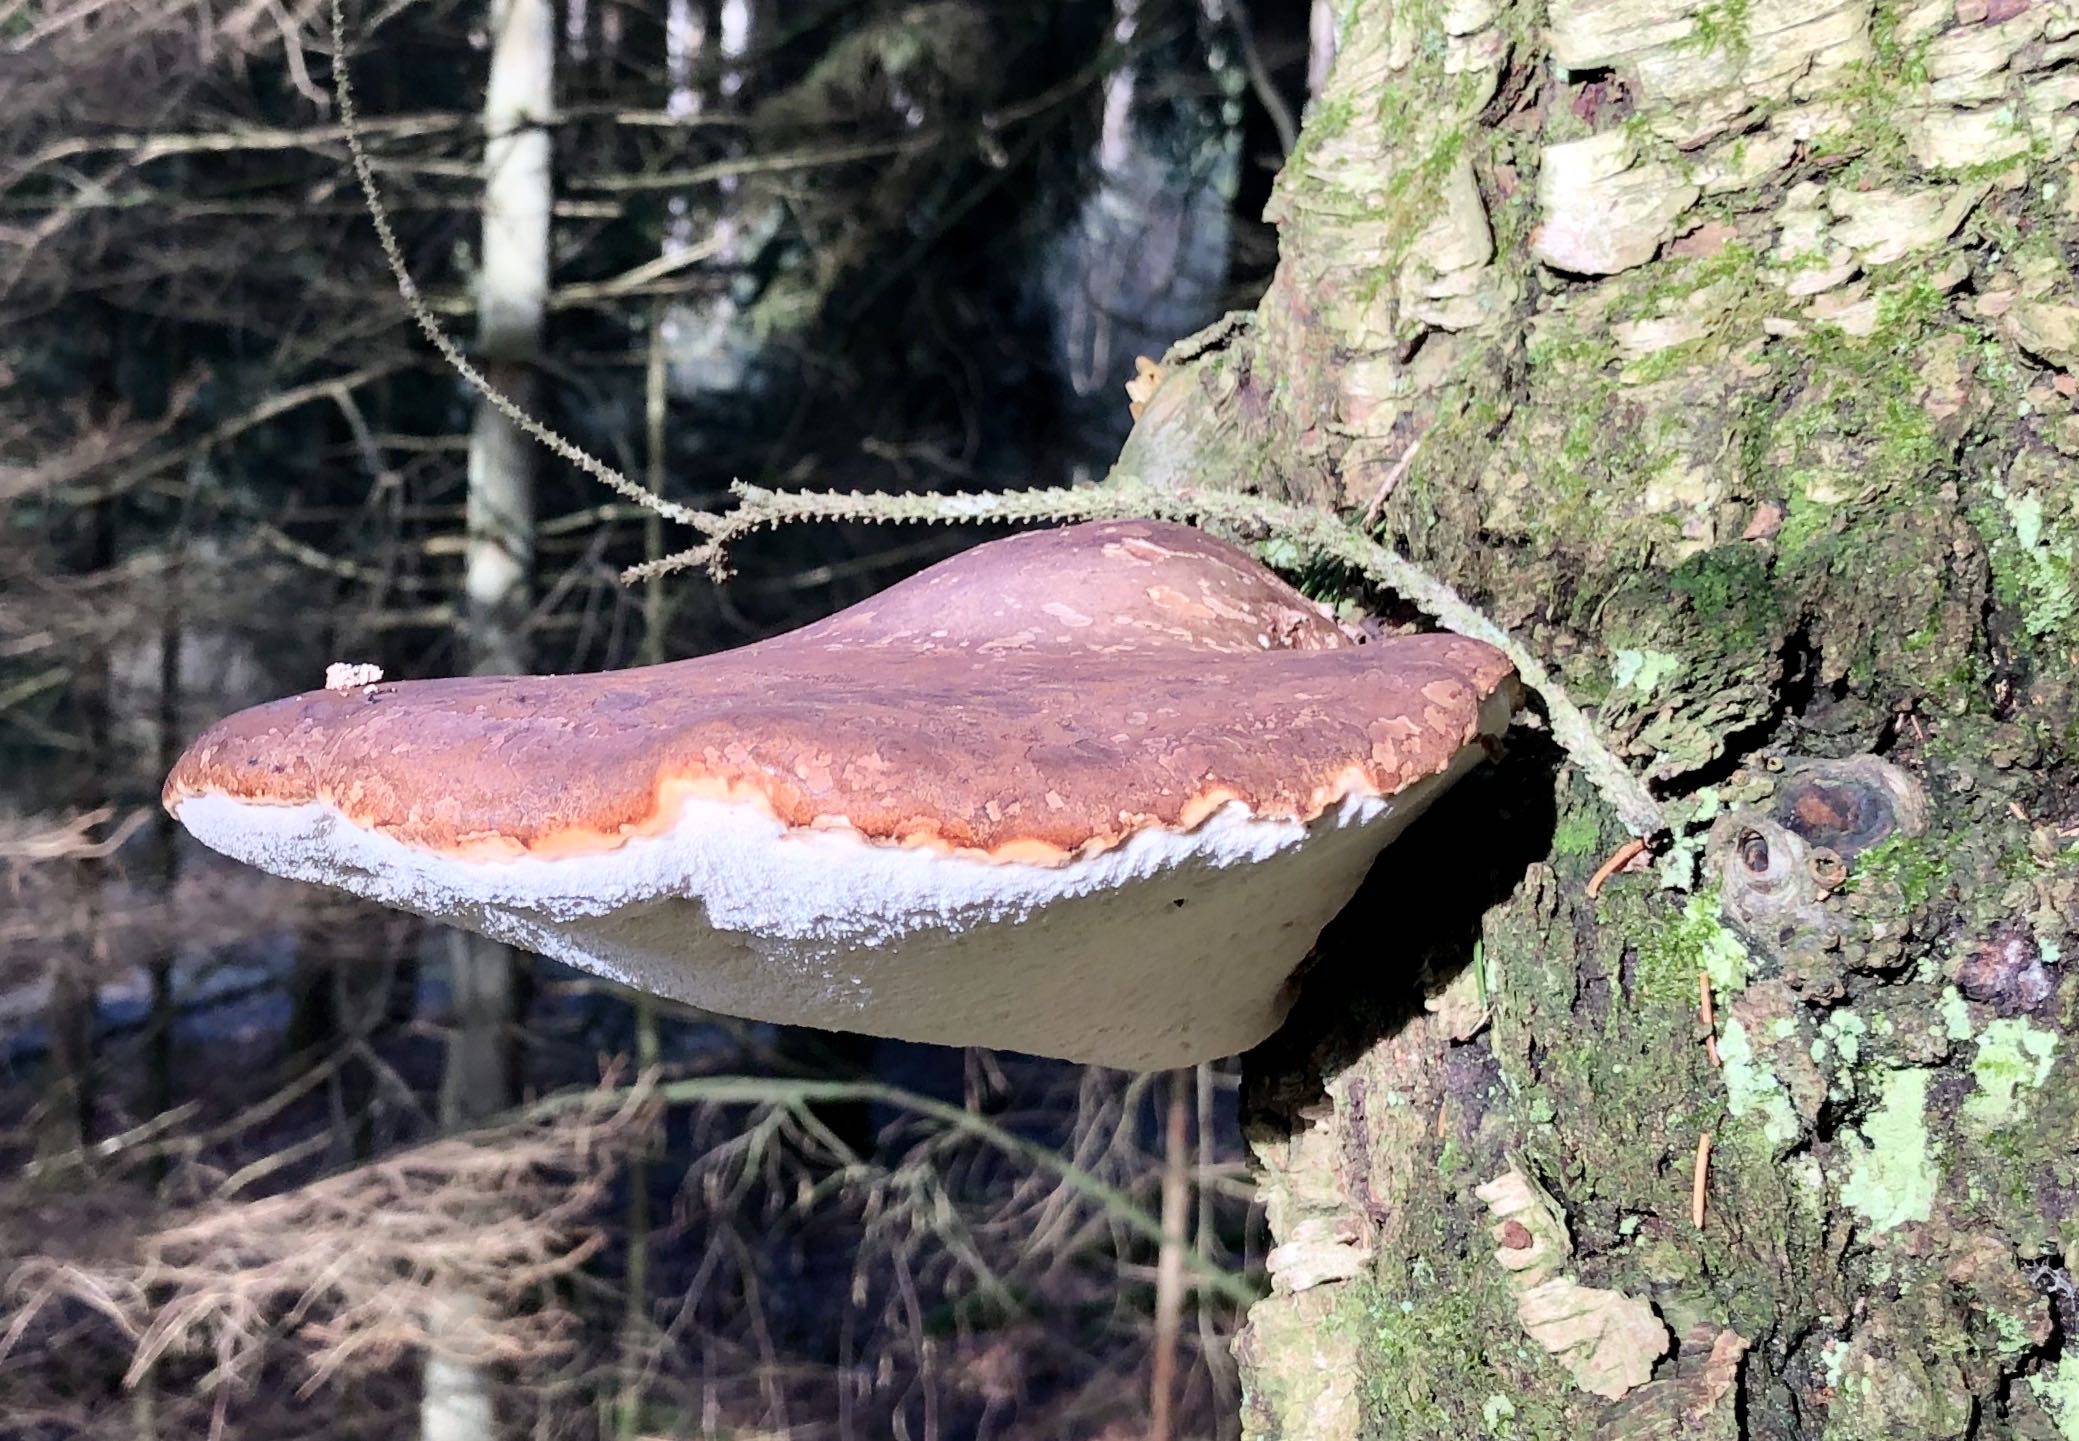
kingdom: Fungi
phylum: Basidiomycota
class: Agaricomycetes
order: Polyporales
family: Fomitopsidaceae
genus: Fomitopsis
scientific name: Fomitopsis betulina
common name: birkeporesvamp
